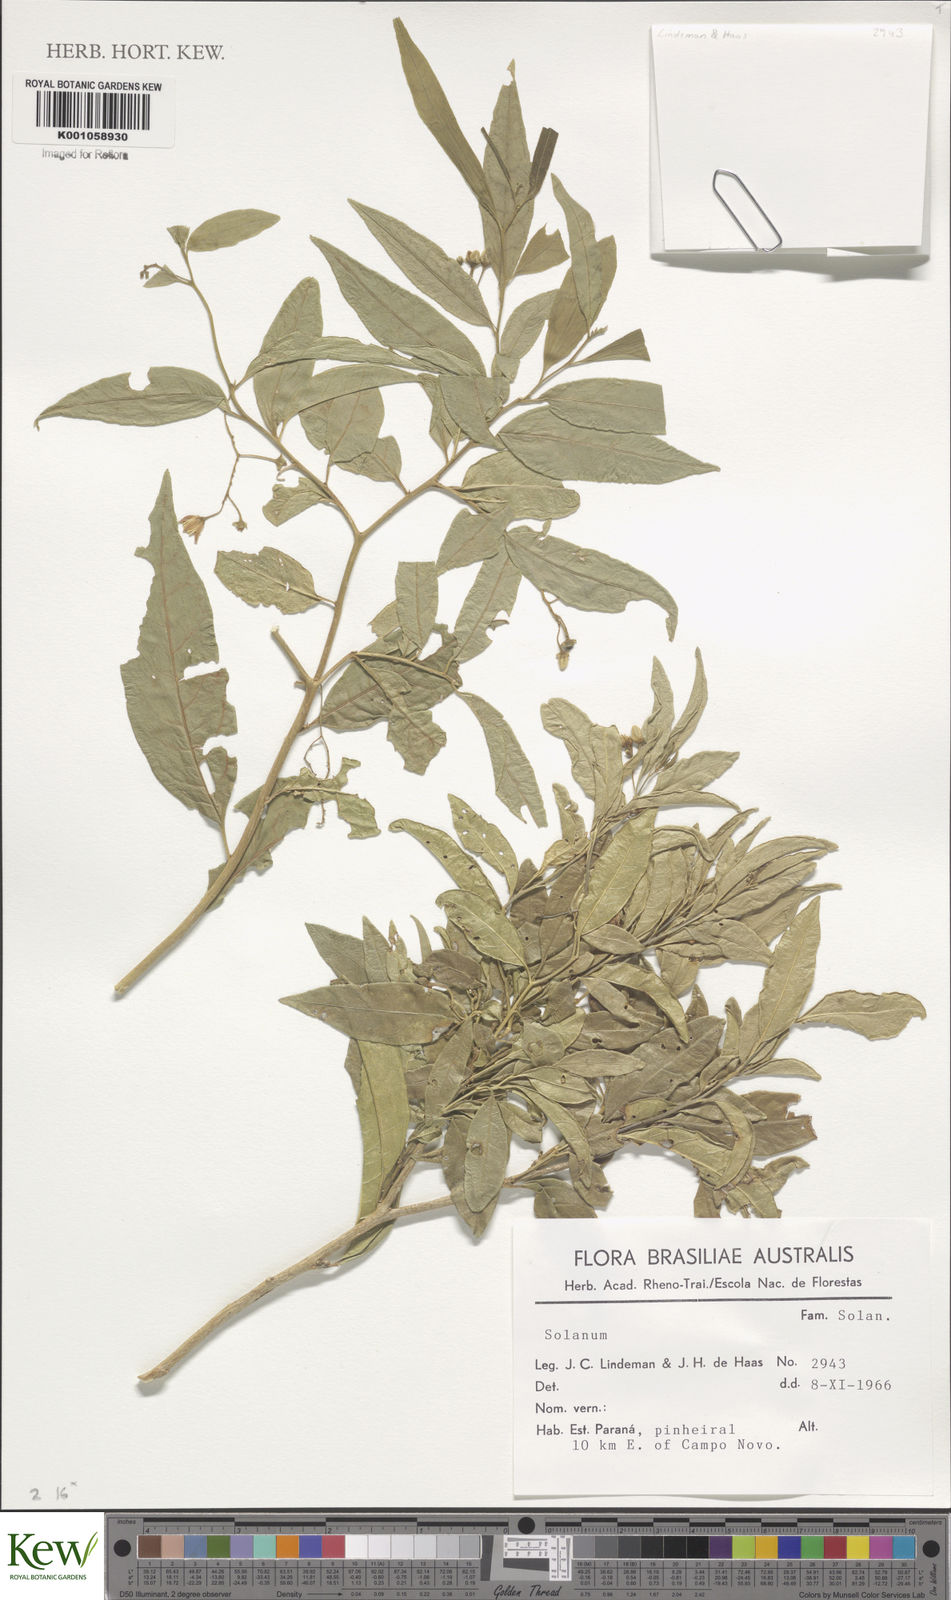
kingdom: Plantae
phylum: Tracheophyta
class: Magnoliopsida
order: Solanales
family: Solanaceae
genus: Solanum
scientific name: Solanum
